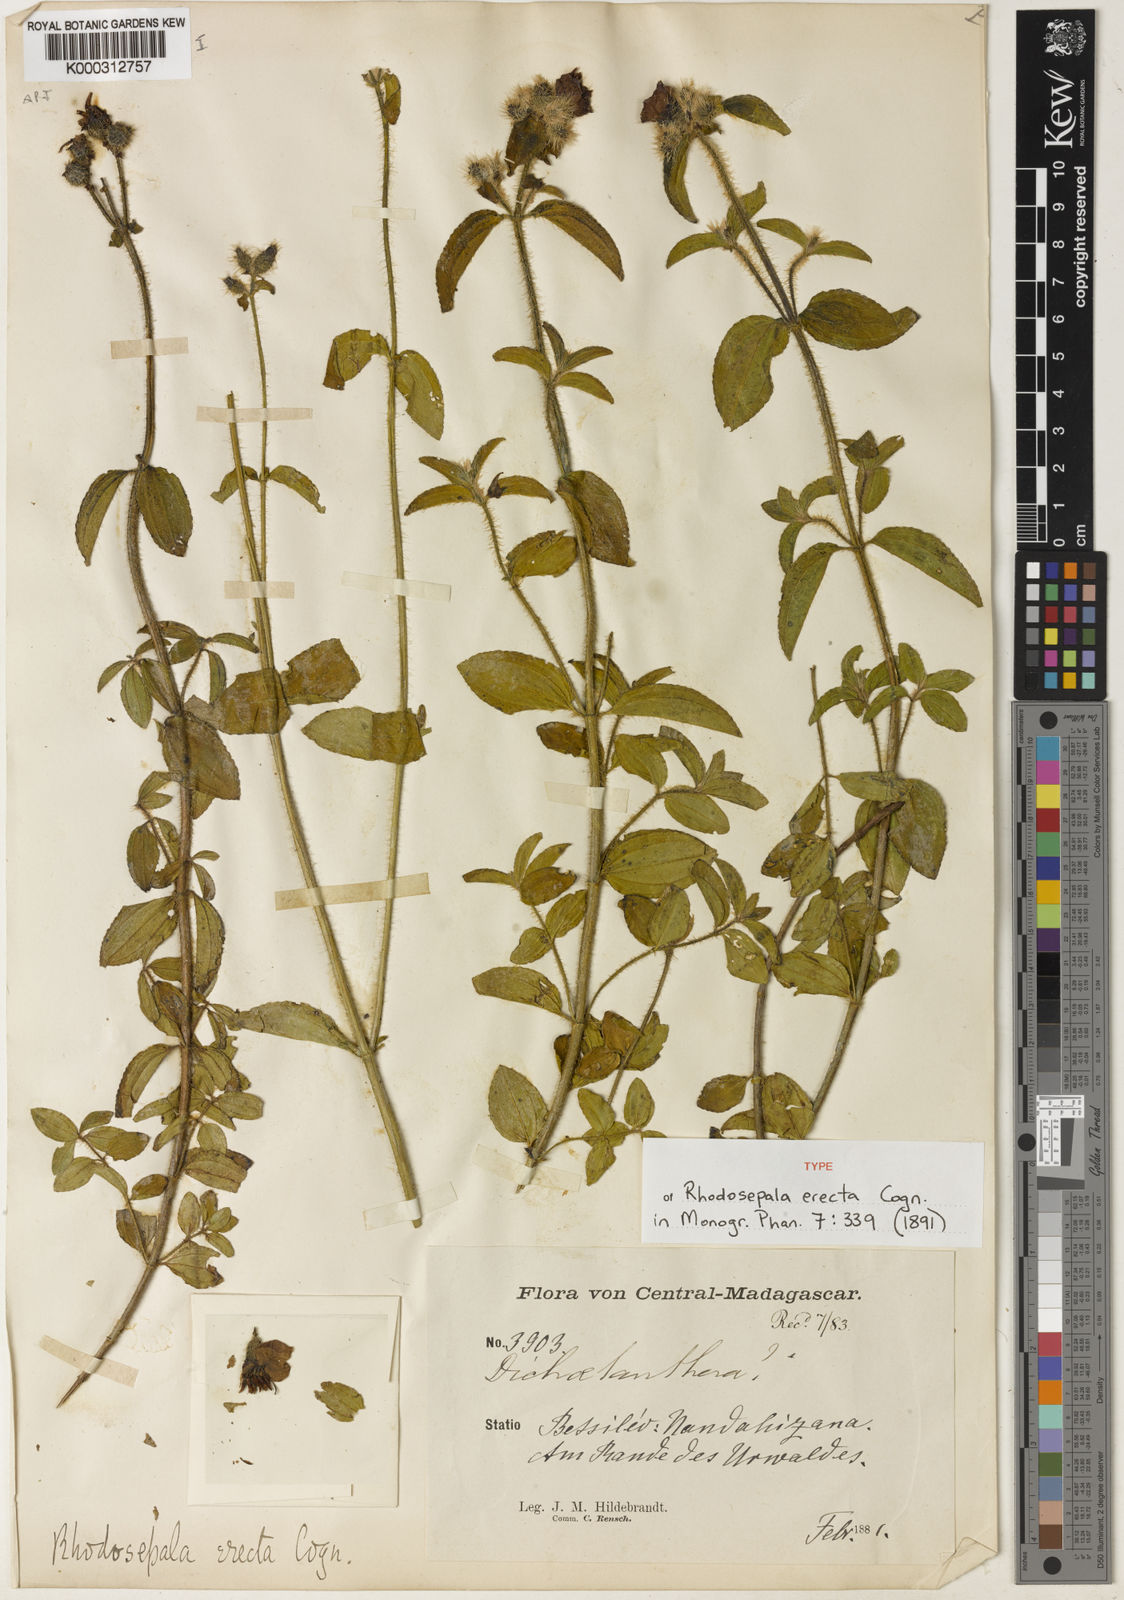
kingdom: Plantae
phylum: Tracheophyta
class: Magnoliopsida
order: Myrtales
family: Melastomataceae
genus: Dissotis
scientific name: Dissotis
